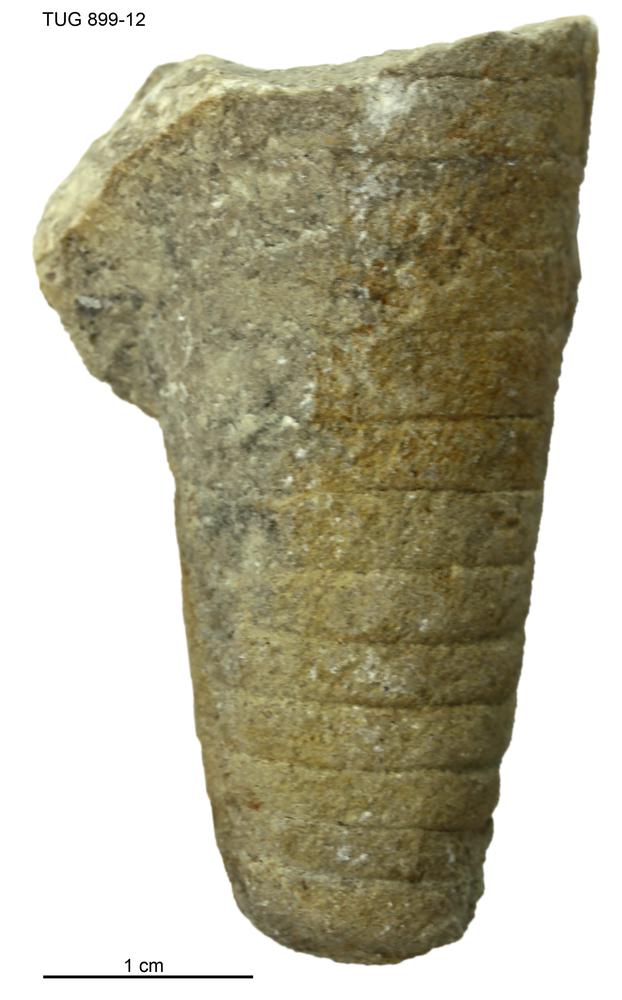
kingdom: Animalia
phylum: Mollusca
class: Cephalopoda
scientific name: Cephalopoda
